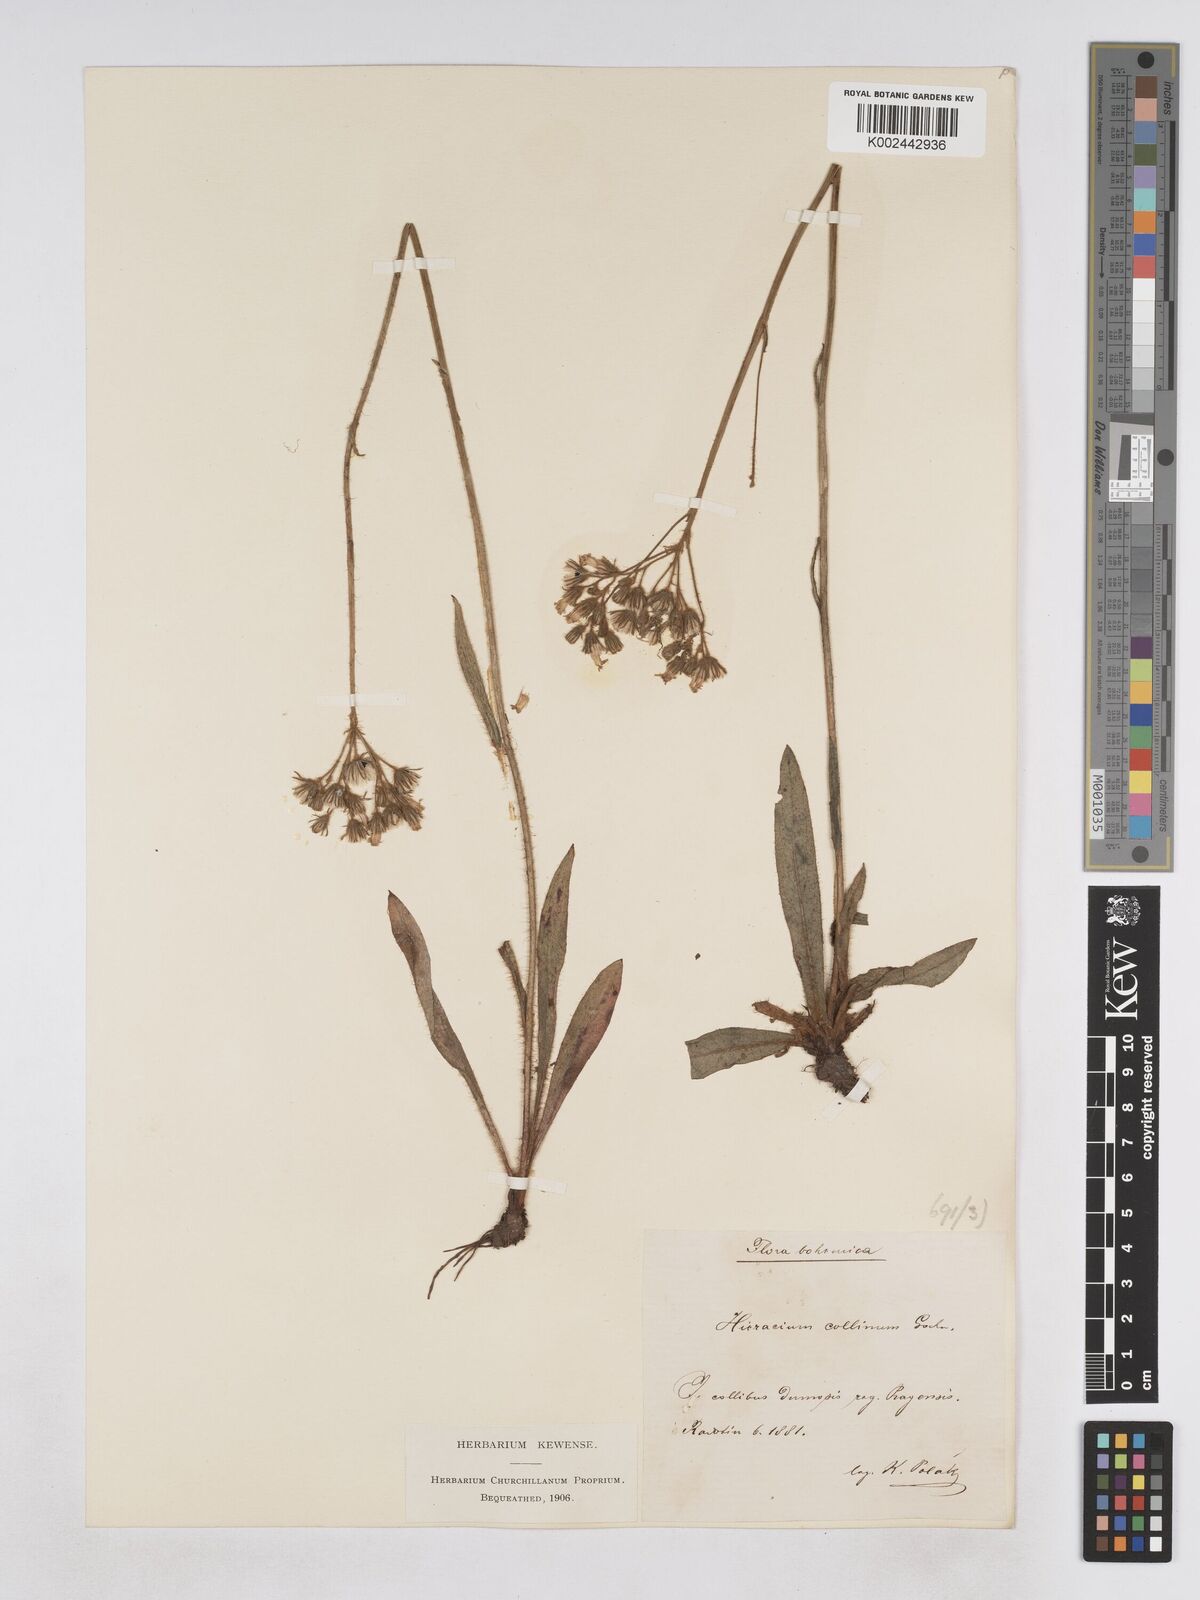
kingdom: Plantae
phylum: Tracheophyta
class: Magnoliopsida
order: Asterales
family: Asteraceae
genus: Pilosella
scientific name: Pilosella cymosiformis
